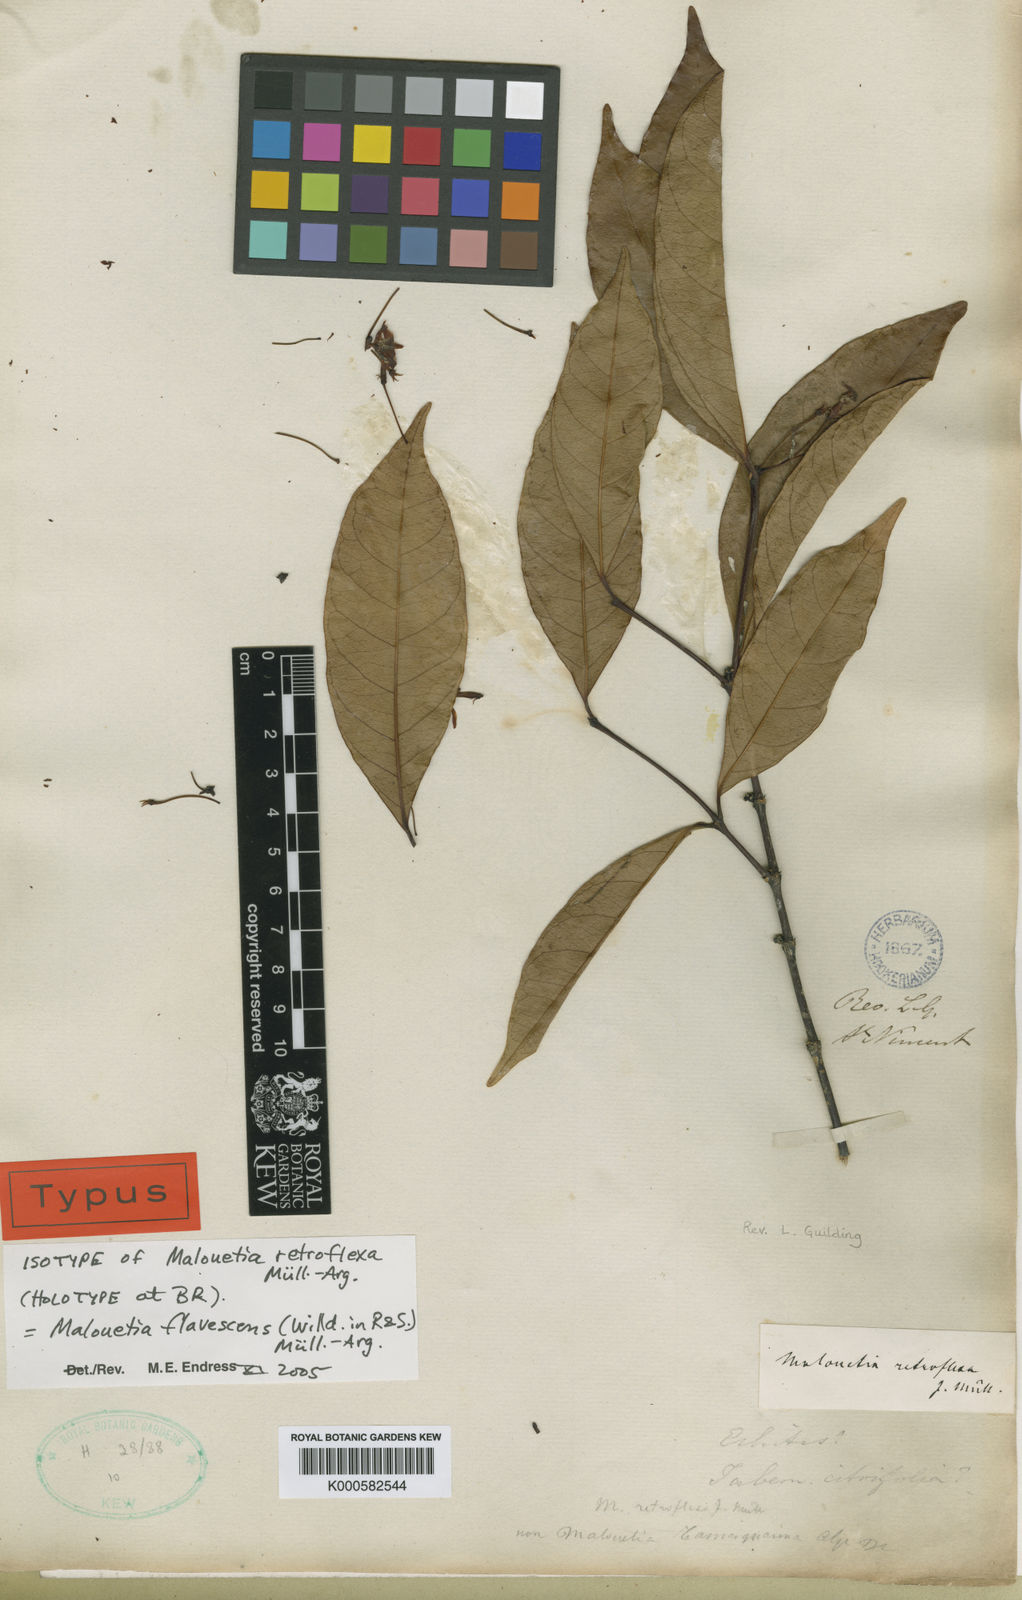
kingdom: Plantae
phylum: Tracheophyta
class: Magnoliopsida
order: Gentianales
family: Apocynaceae
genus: Malouetia
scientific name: Malouetia cubana
